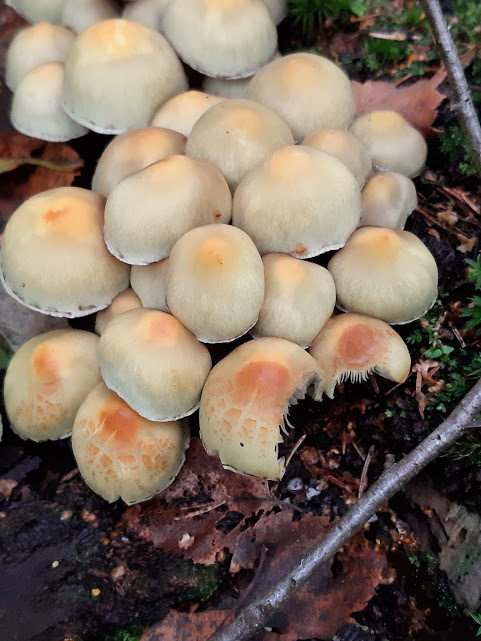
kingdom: Fungi
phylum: Basidiomycota
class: Agaricomycetes
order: Agaricales
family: Strophariaceae
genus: Hypholoma
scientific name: Hypholoma
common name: svovlhat
